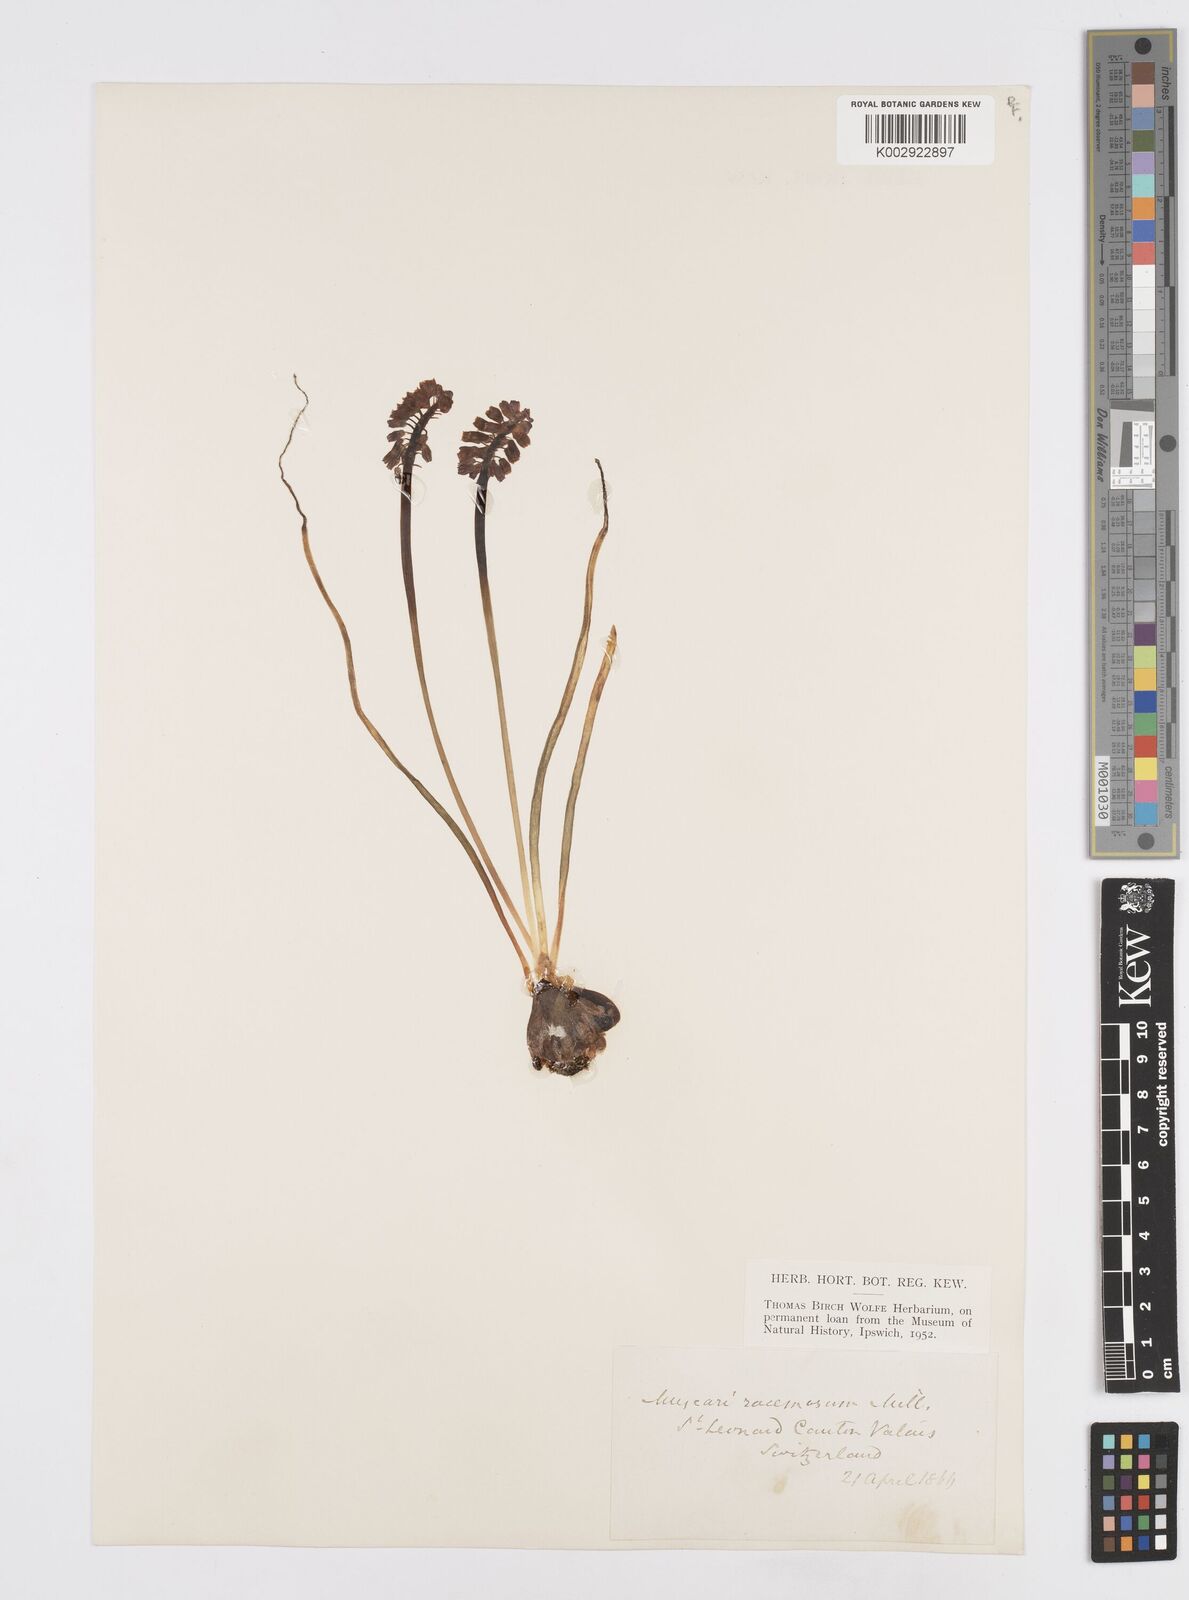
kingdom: Plantae
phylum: Tracheophyta
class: Liliopsida
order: Asparagales
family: Asparagaceae
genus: Muscarimia
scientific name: Muscarimia muscari
